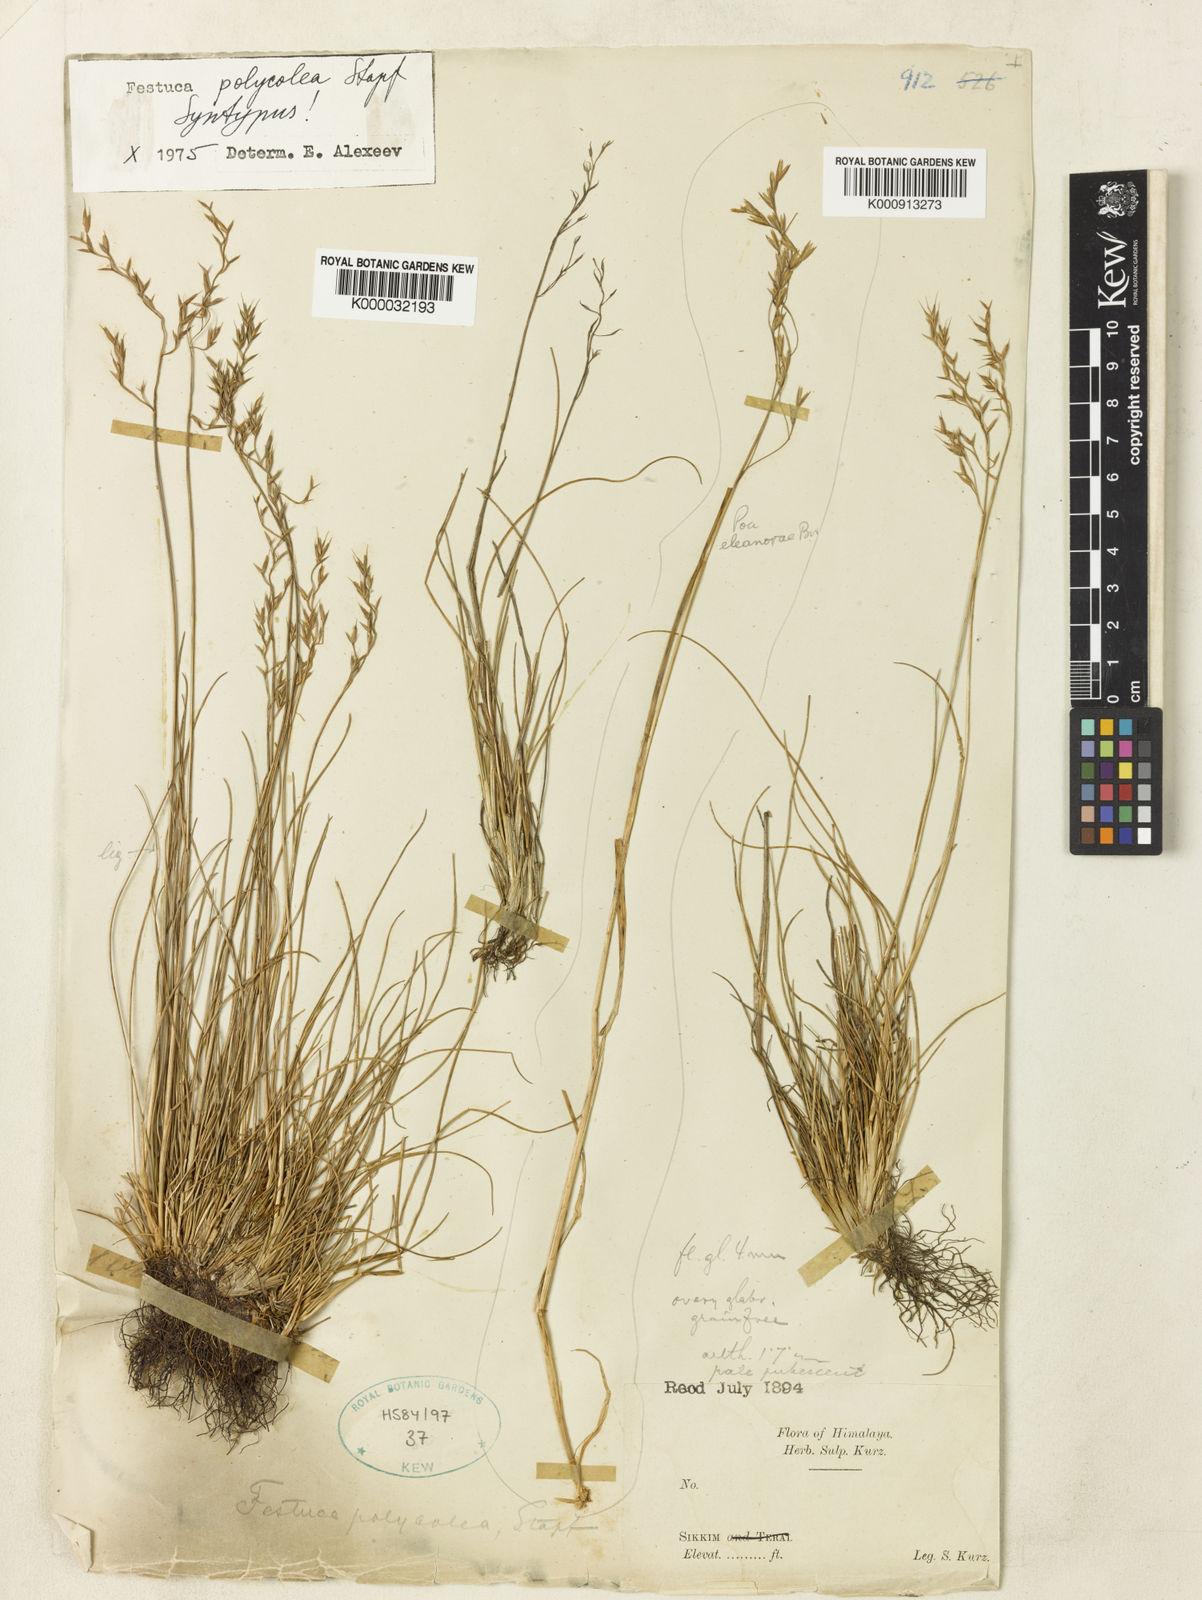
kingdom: Plantae
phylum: Tracheophyta
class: Liliopsida
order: Poales
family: Poaceae
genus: Festuca
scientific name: Festuca polycolea
